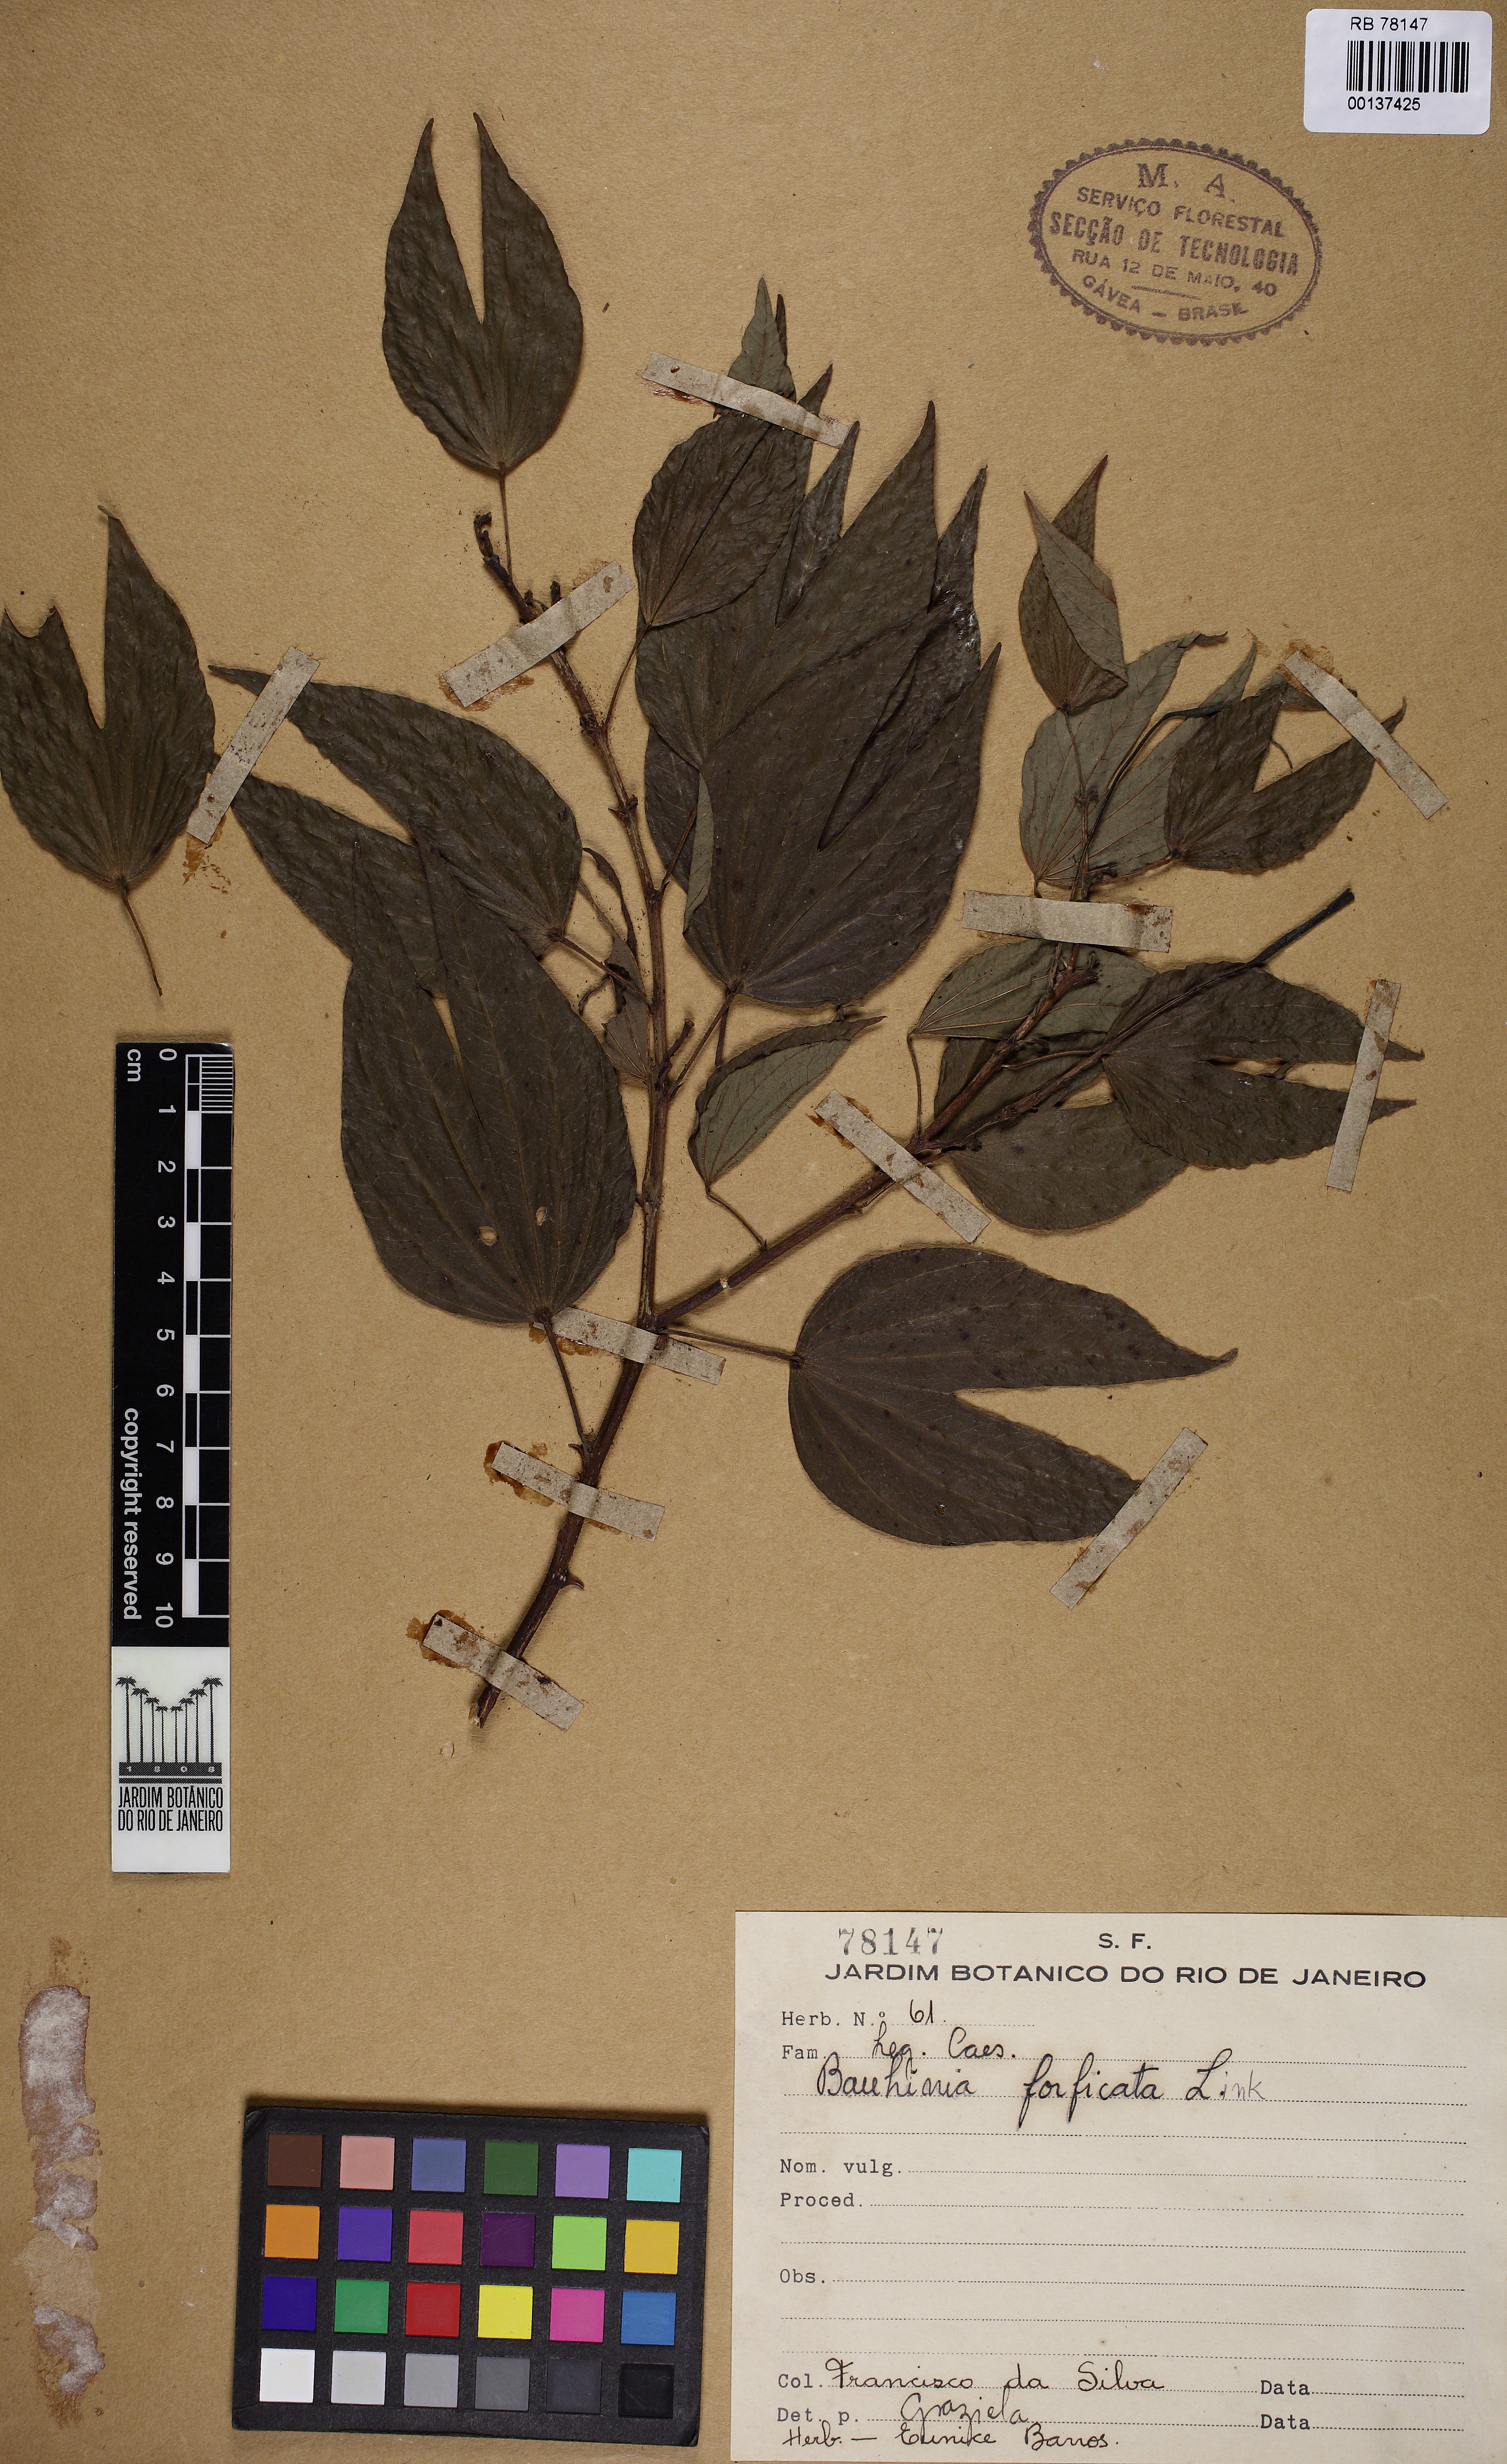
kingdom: Plantae
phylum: Tracheophyta
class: Magnoliopsida
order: Fabales
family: Fabaceae
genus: Bauhinia
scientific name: Bauhinia forficata
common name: Orchid tree
